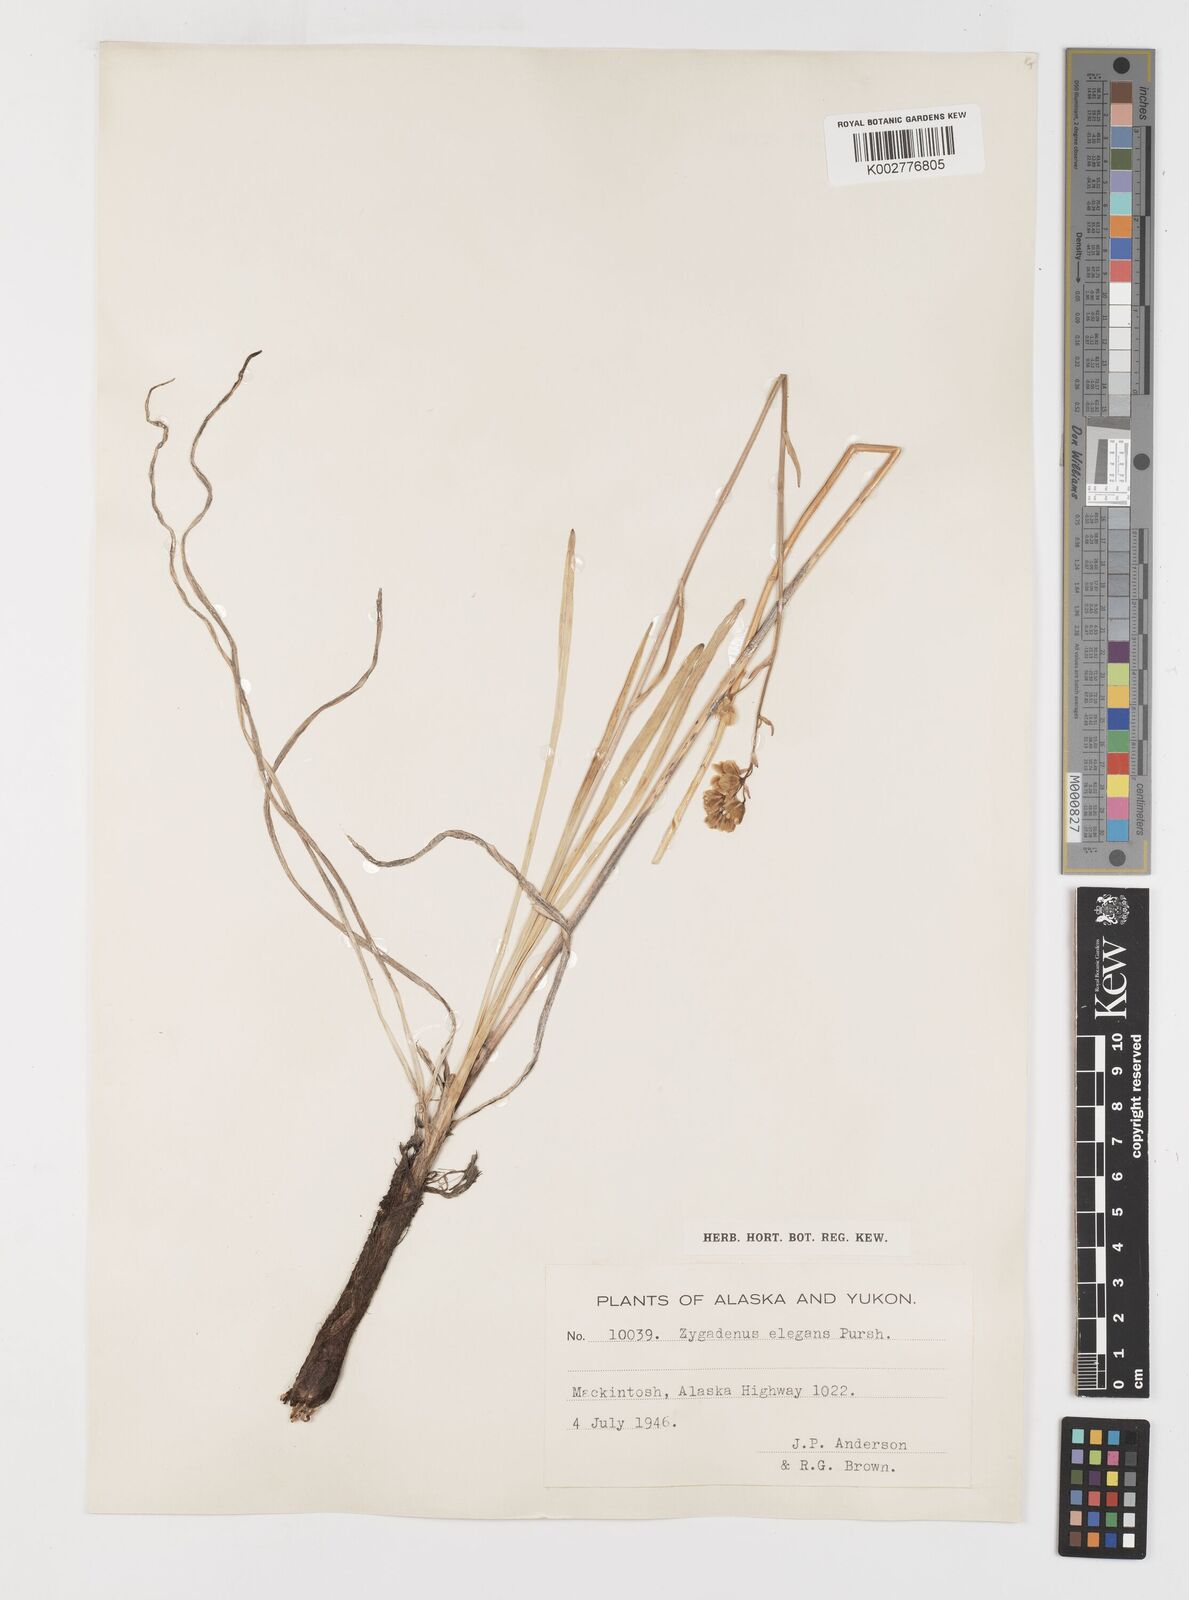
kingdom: Plantae
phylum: Tracheophyta
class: Liliopsida
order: Liliales
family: Melanthiaceae
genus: Anticlea
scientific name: Anticlea elegans
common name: Mountain death camas
